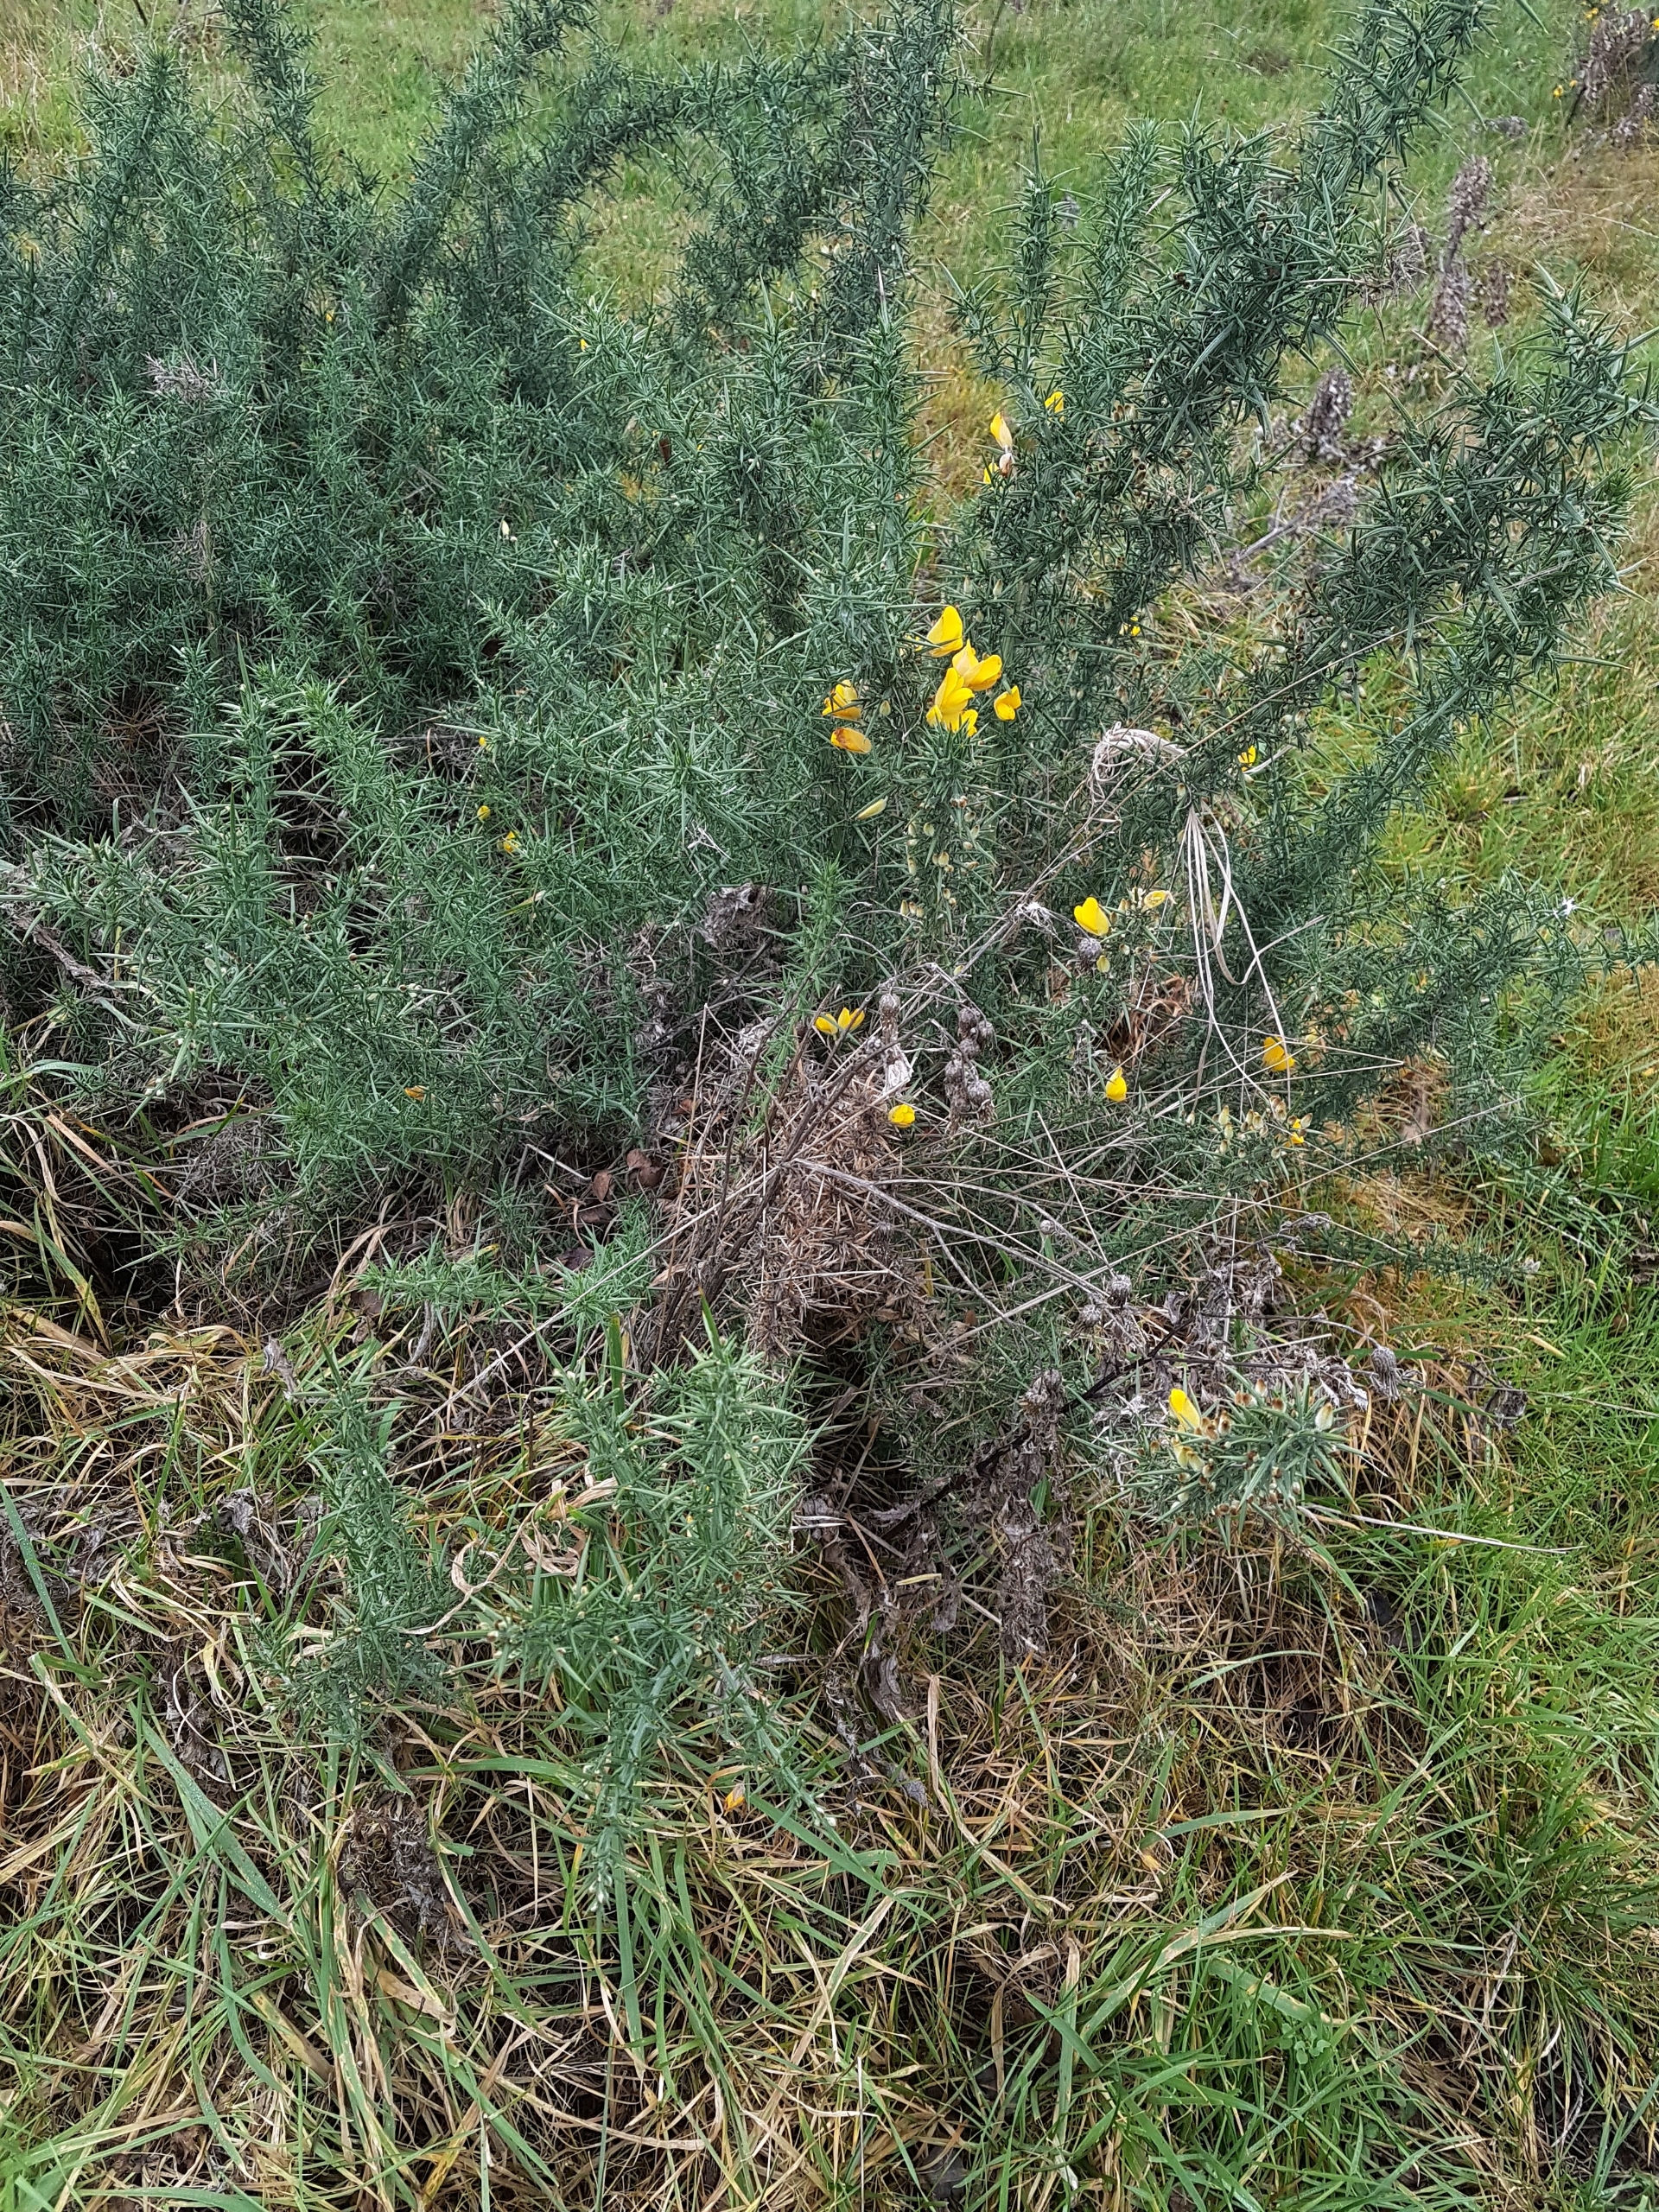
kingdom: Plantae
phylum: Tracheophyta
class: Magnoliopsida
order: Fabales
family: Fabaceae
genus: Ulex
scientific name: Ulex europaeus
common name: Tornblad
